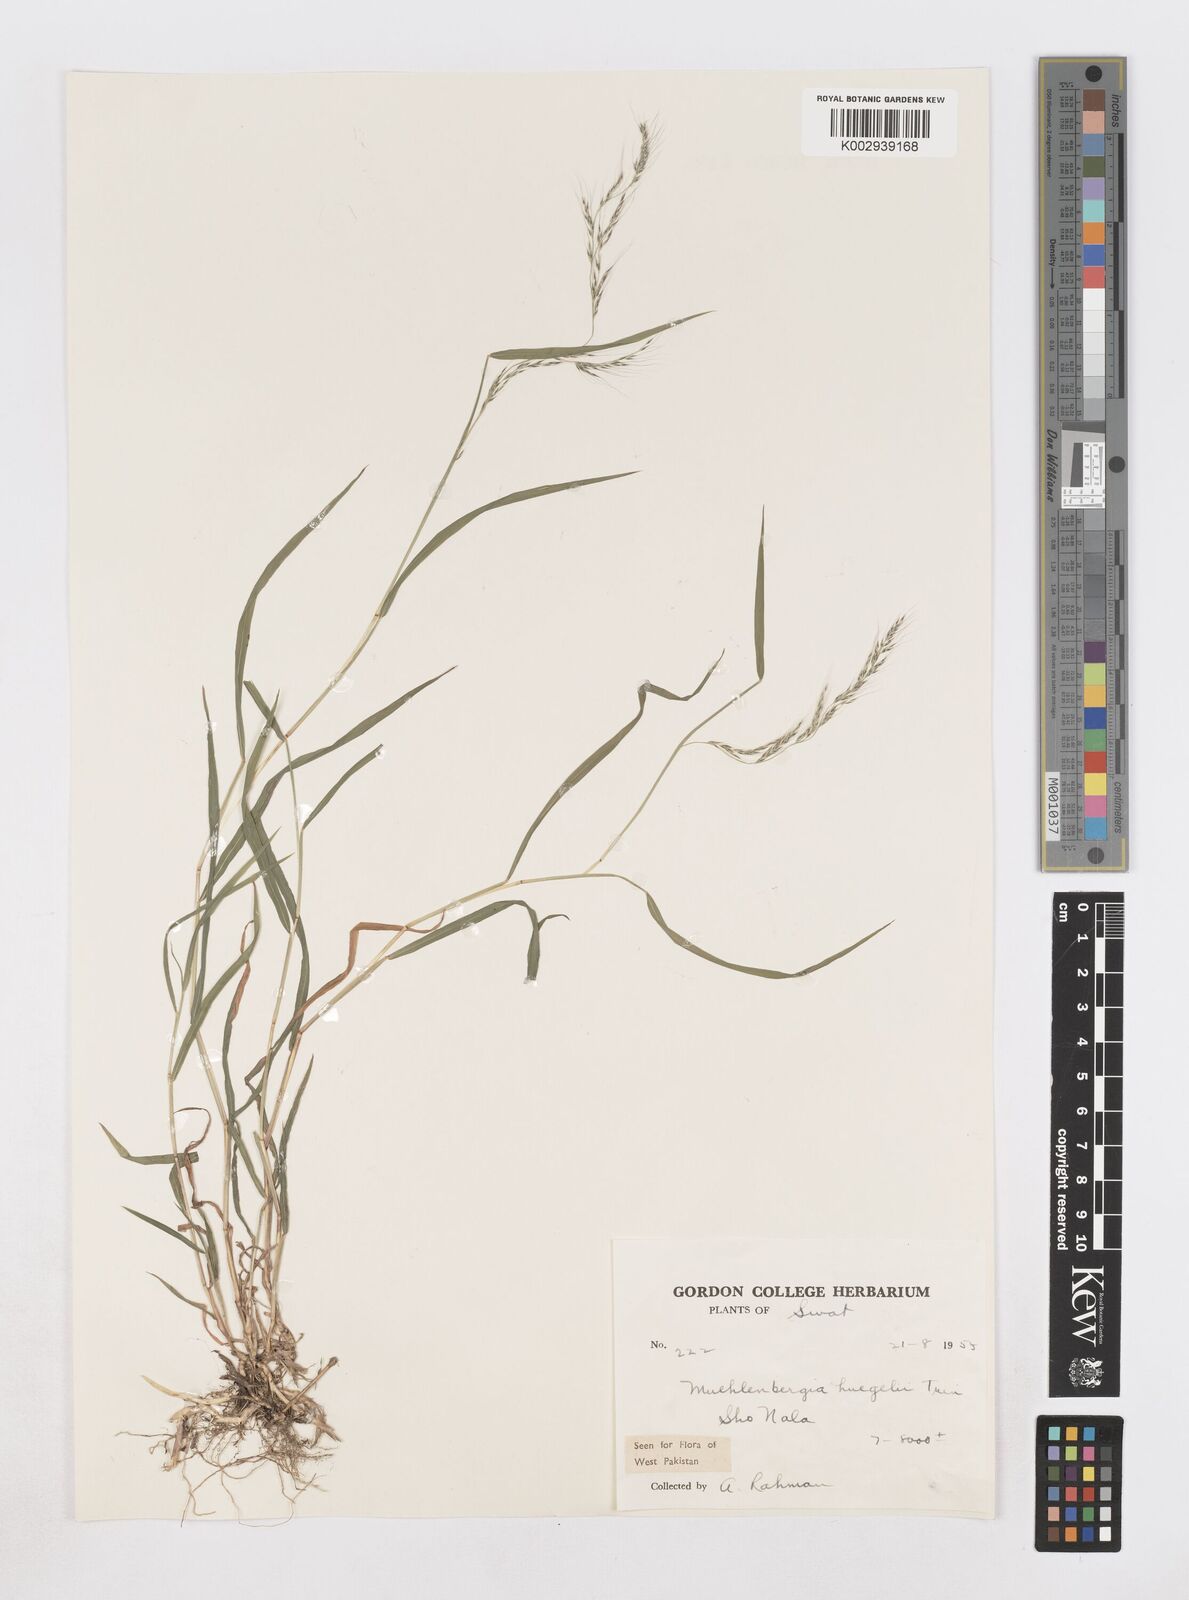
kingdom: Plantae
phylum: Tracheophyta
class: Liliopsida
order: Poales
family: Poaceae
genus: Muhlenbergia
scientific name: Muhlenbergia huegelii
